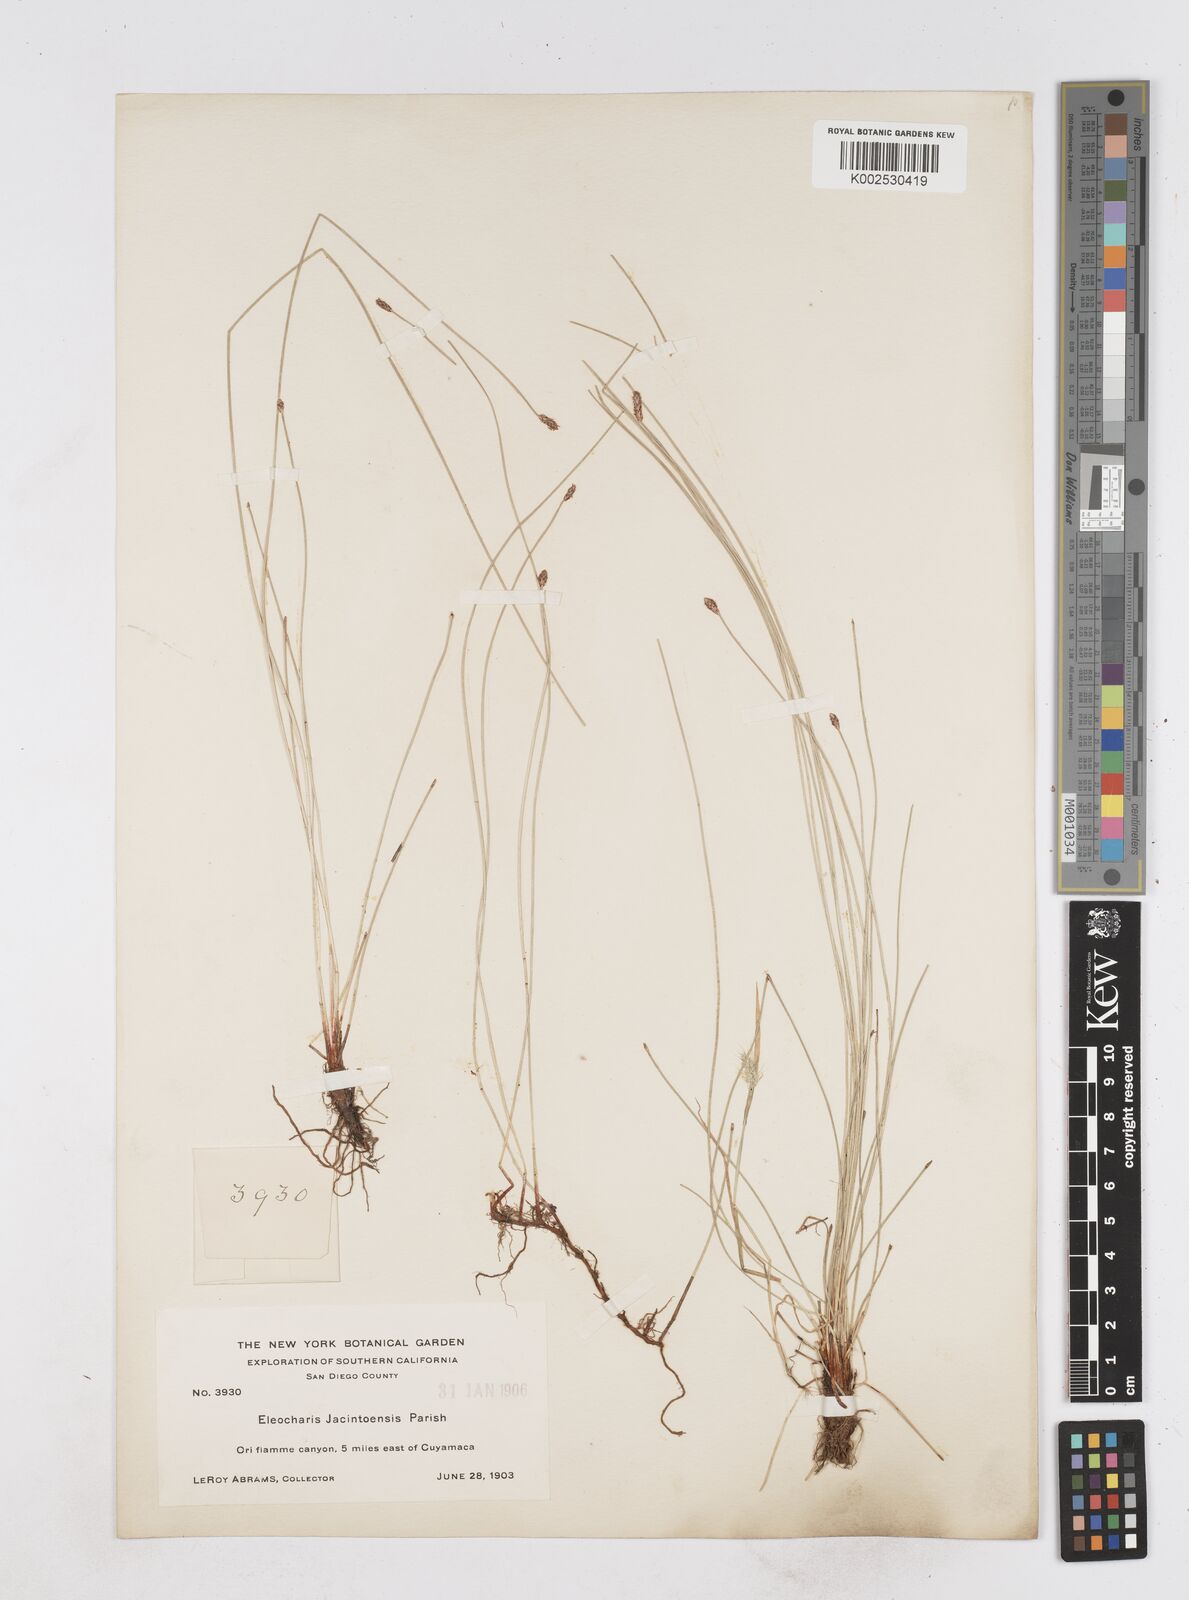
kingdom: Plantae
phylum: Tracheophyta
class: Liliopsida
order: Poales
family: Cyperaceae
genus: Eleocharis
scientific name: Eleocharis
